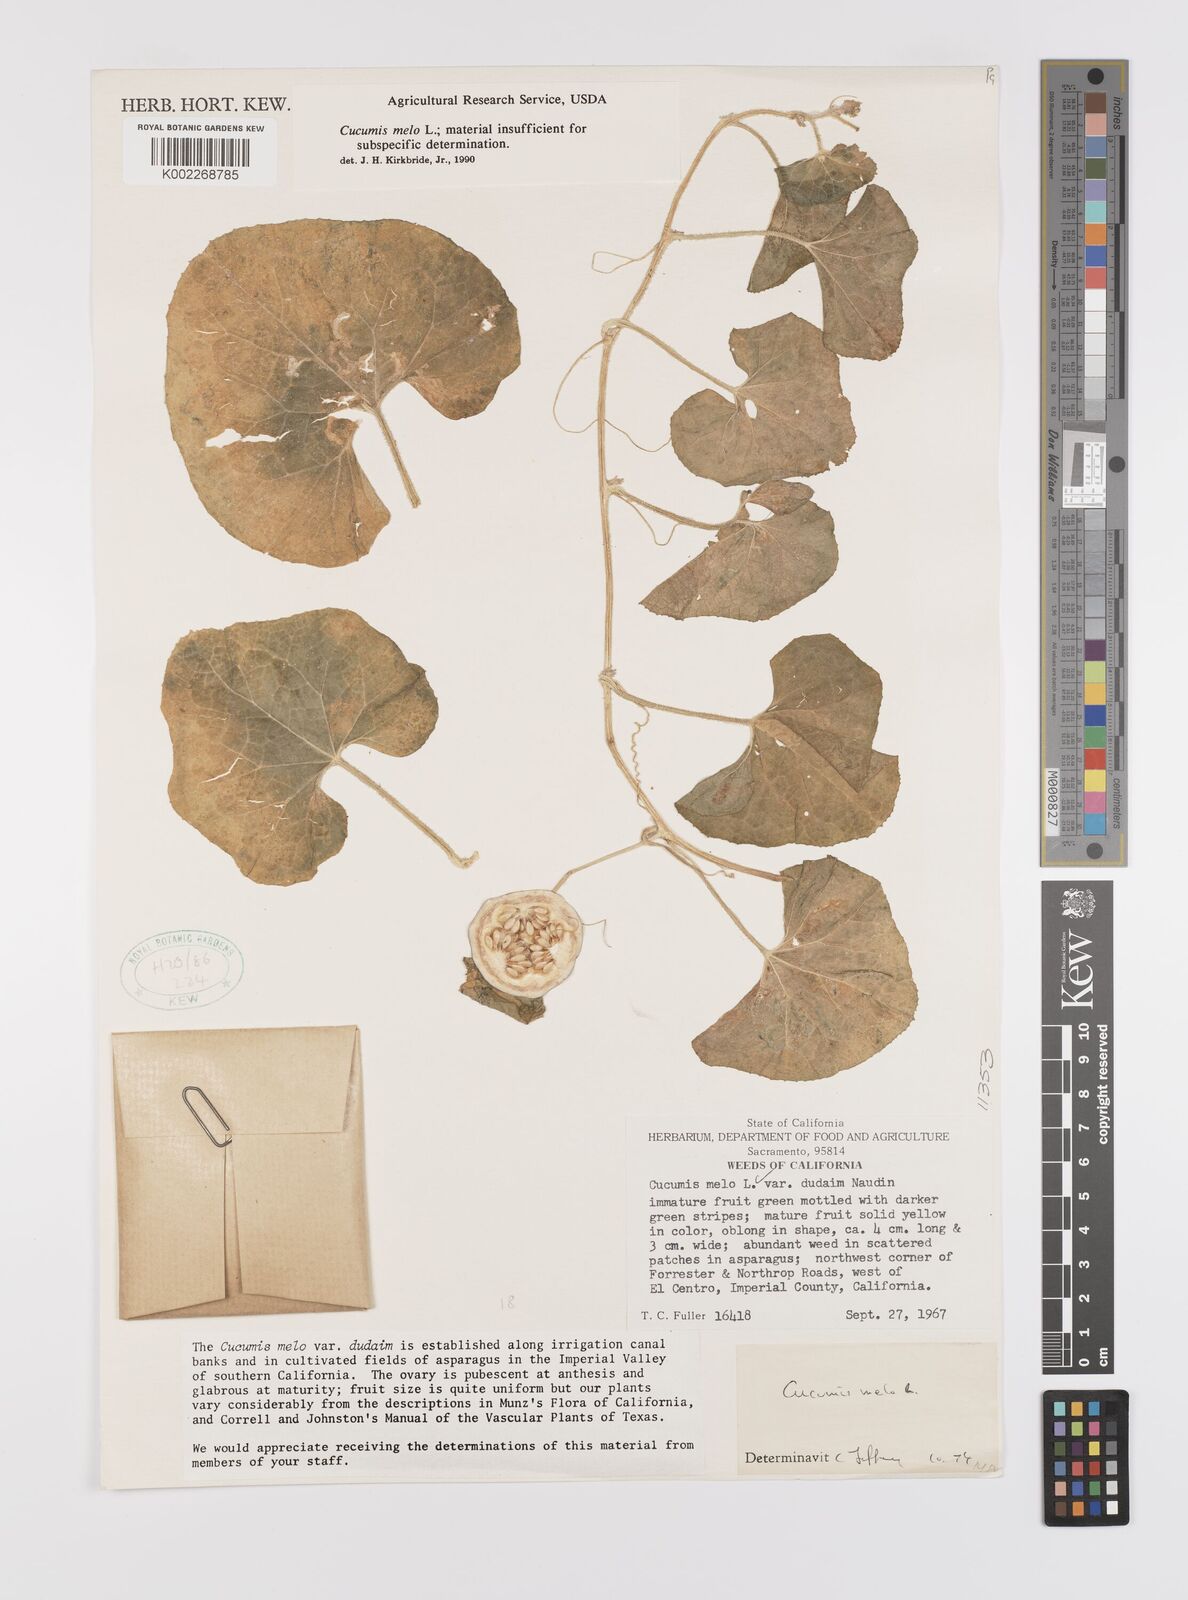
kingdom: Plantae
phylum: Tracheophyta
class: Magnoliopsida
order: Cucurbitales
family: Cucurbitaceae
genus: Cucumis
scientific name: Cucumis melo
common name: Melon
